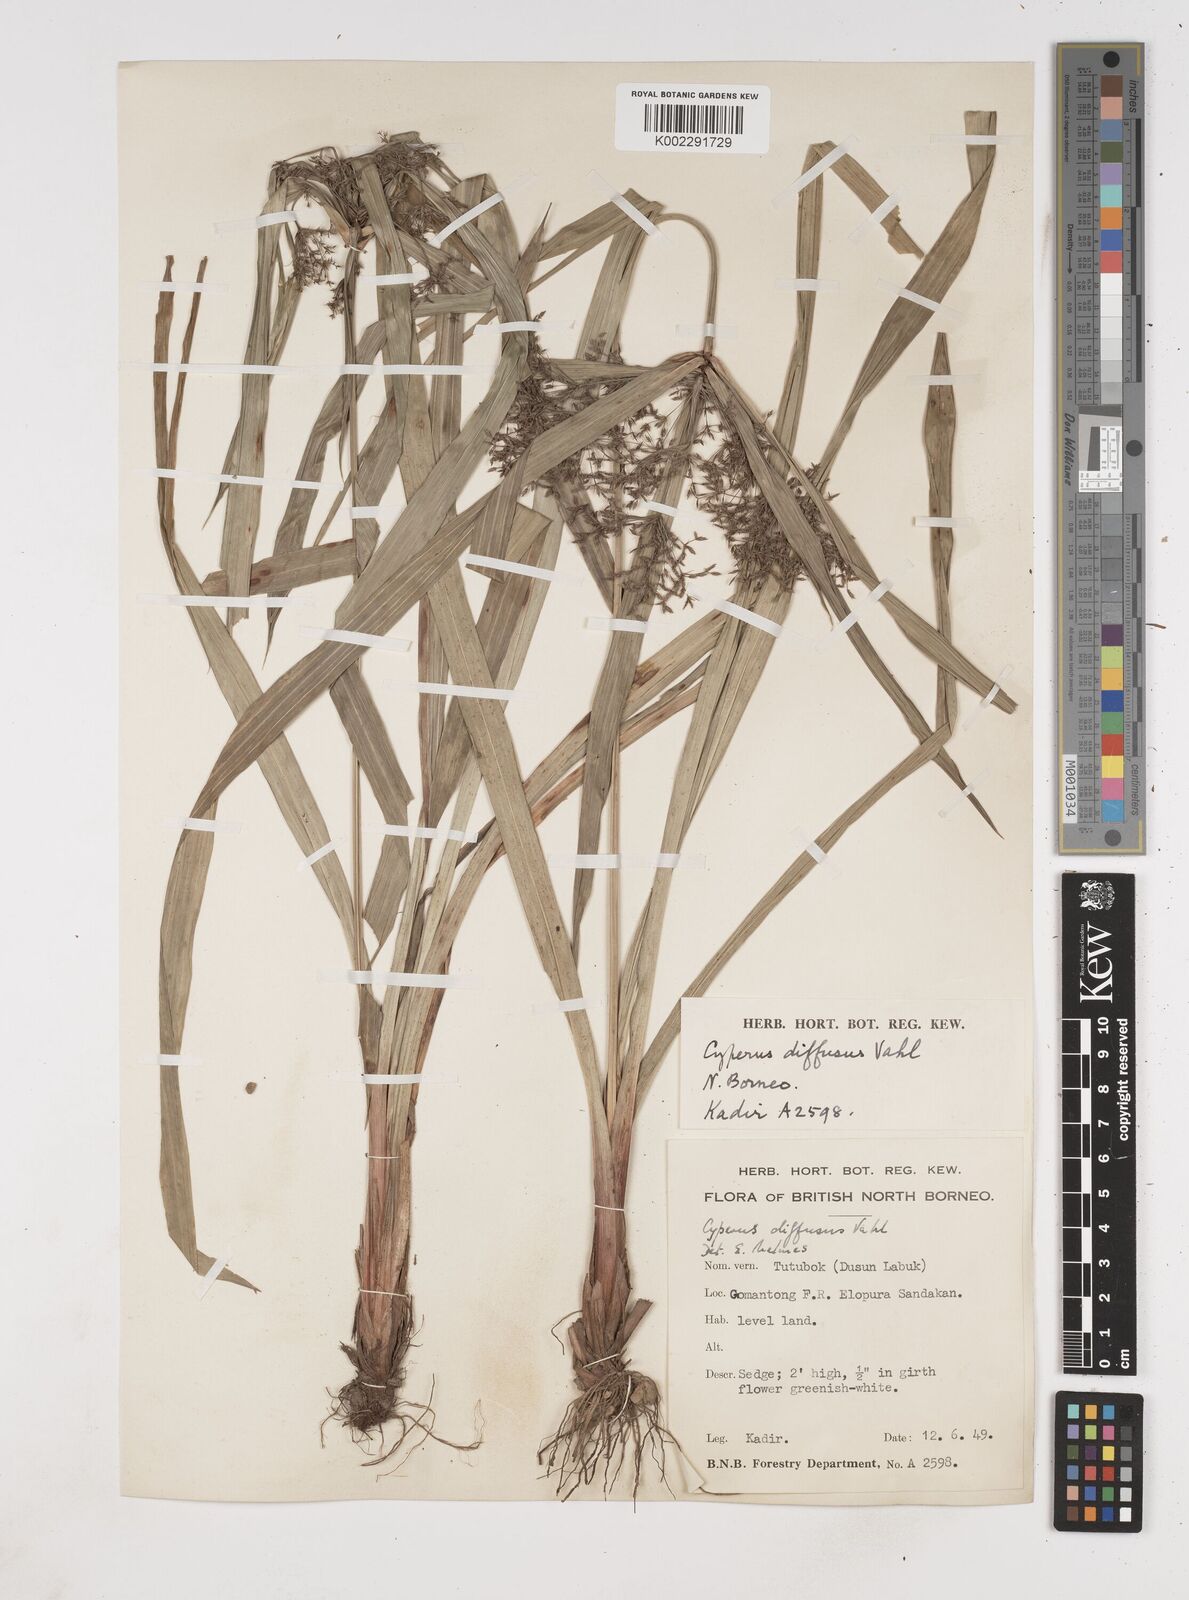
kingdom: Plantae
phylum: Tracheophyta
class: Liliopsida
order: Poales
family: Cyperaceae
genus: Cyperus
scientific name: Cyperus diffusus
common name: Dwarf umbrella grass
